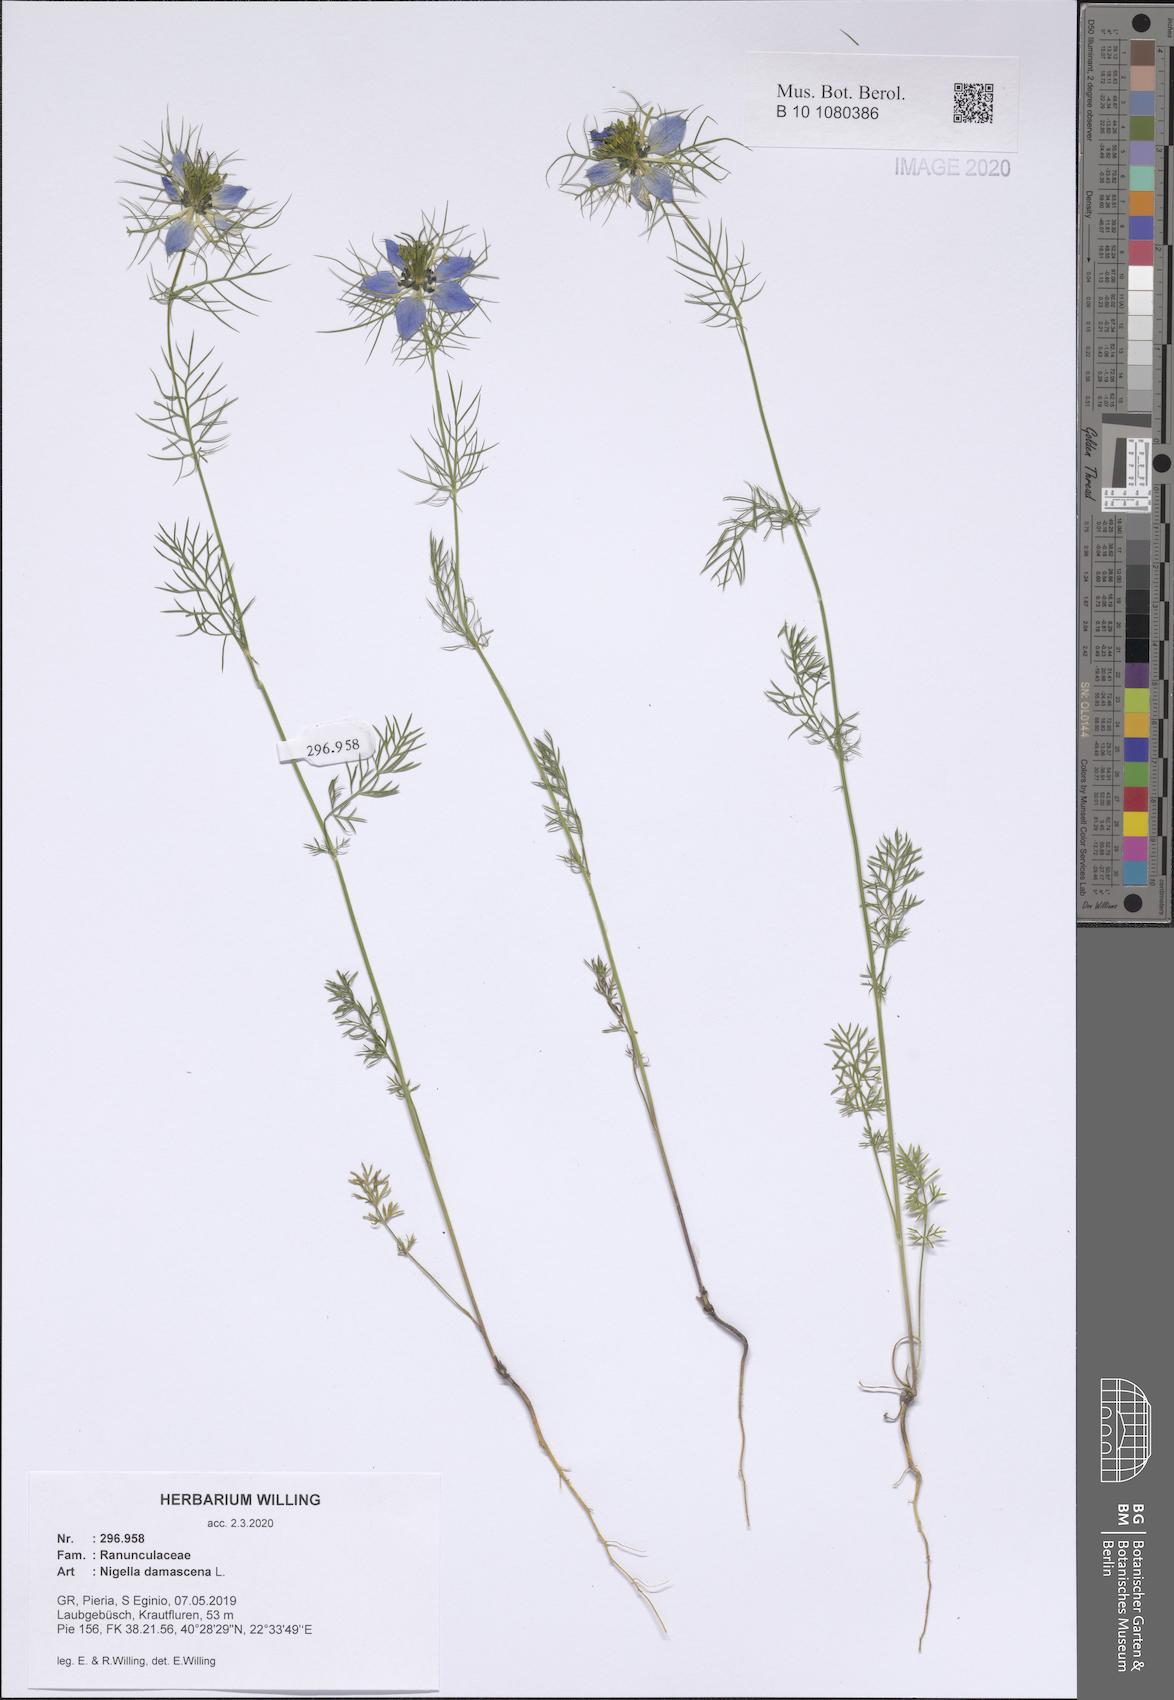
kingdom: Plantae
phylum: Tracheophyta
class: Magnoliopsida
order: Ranunculales
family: Ranunculaceae
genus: Nigella
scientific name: Nigella damascena
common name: Love-in-a-mist
